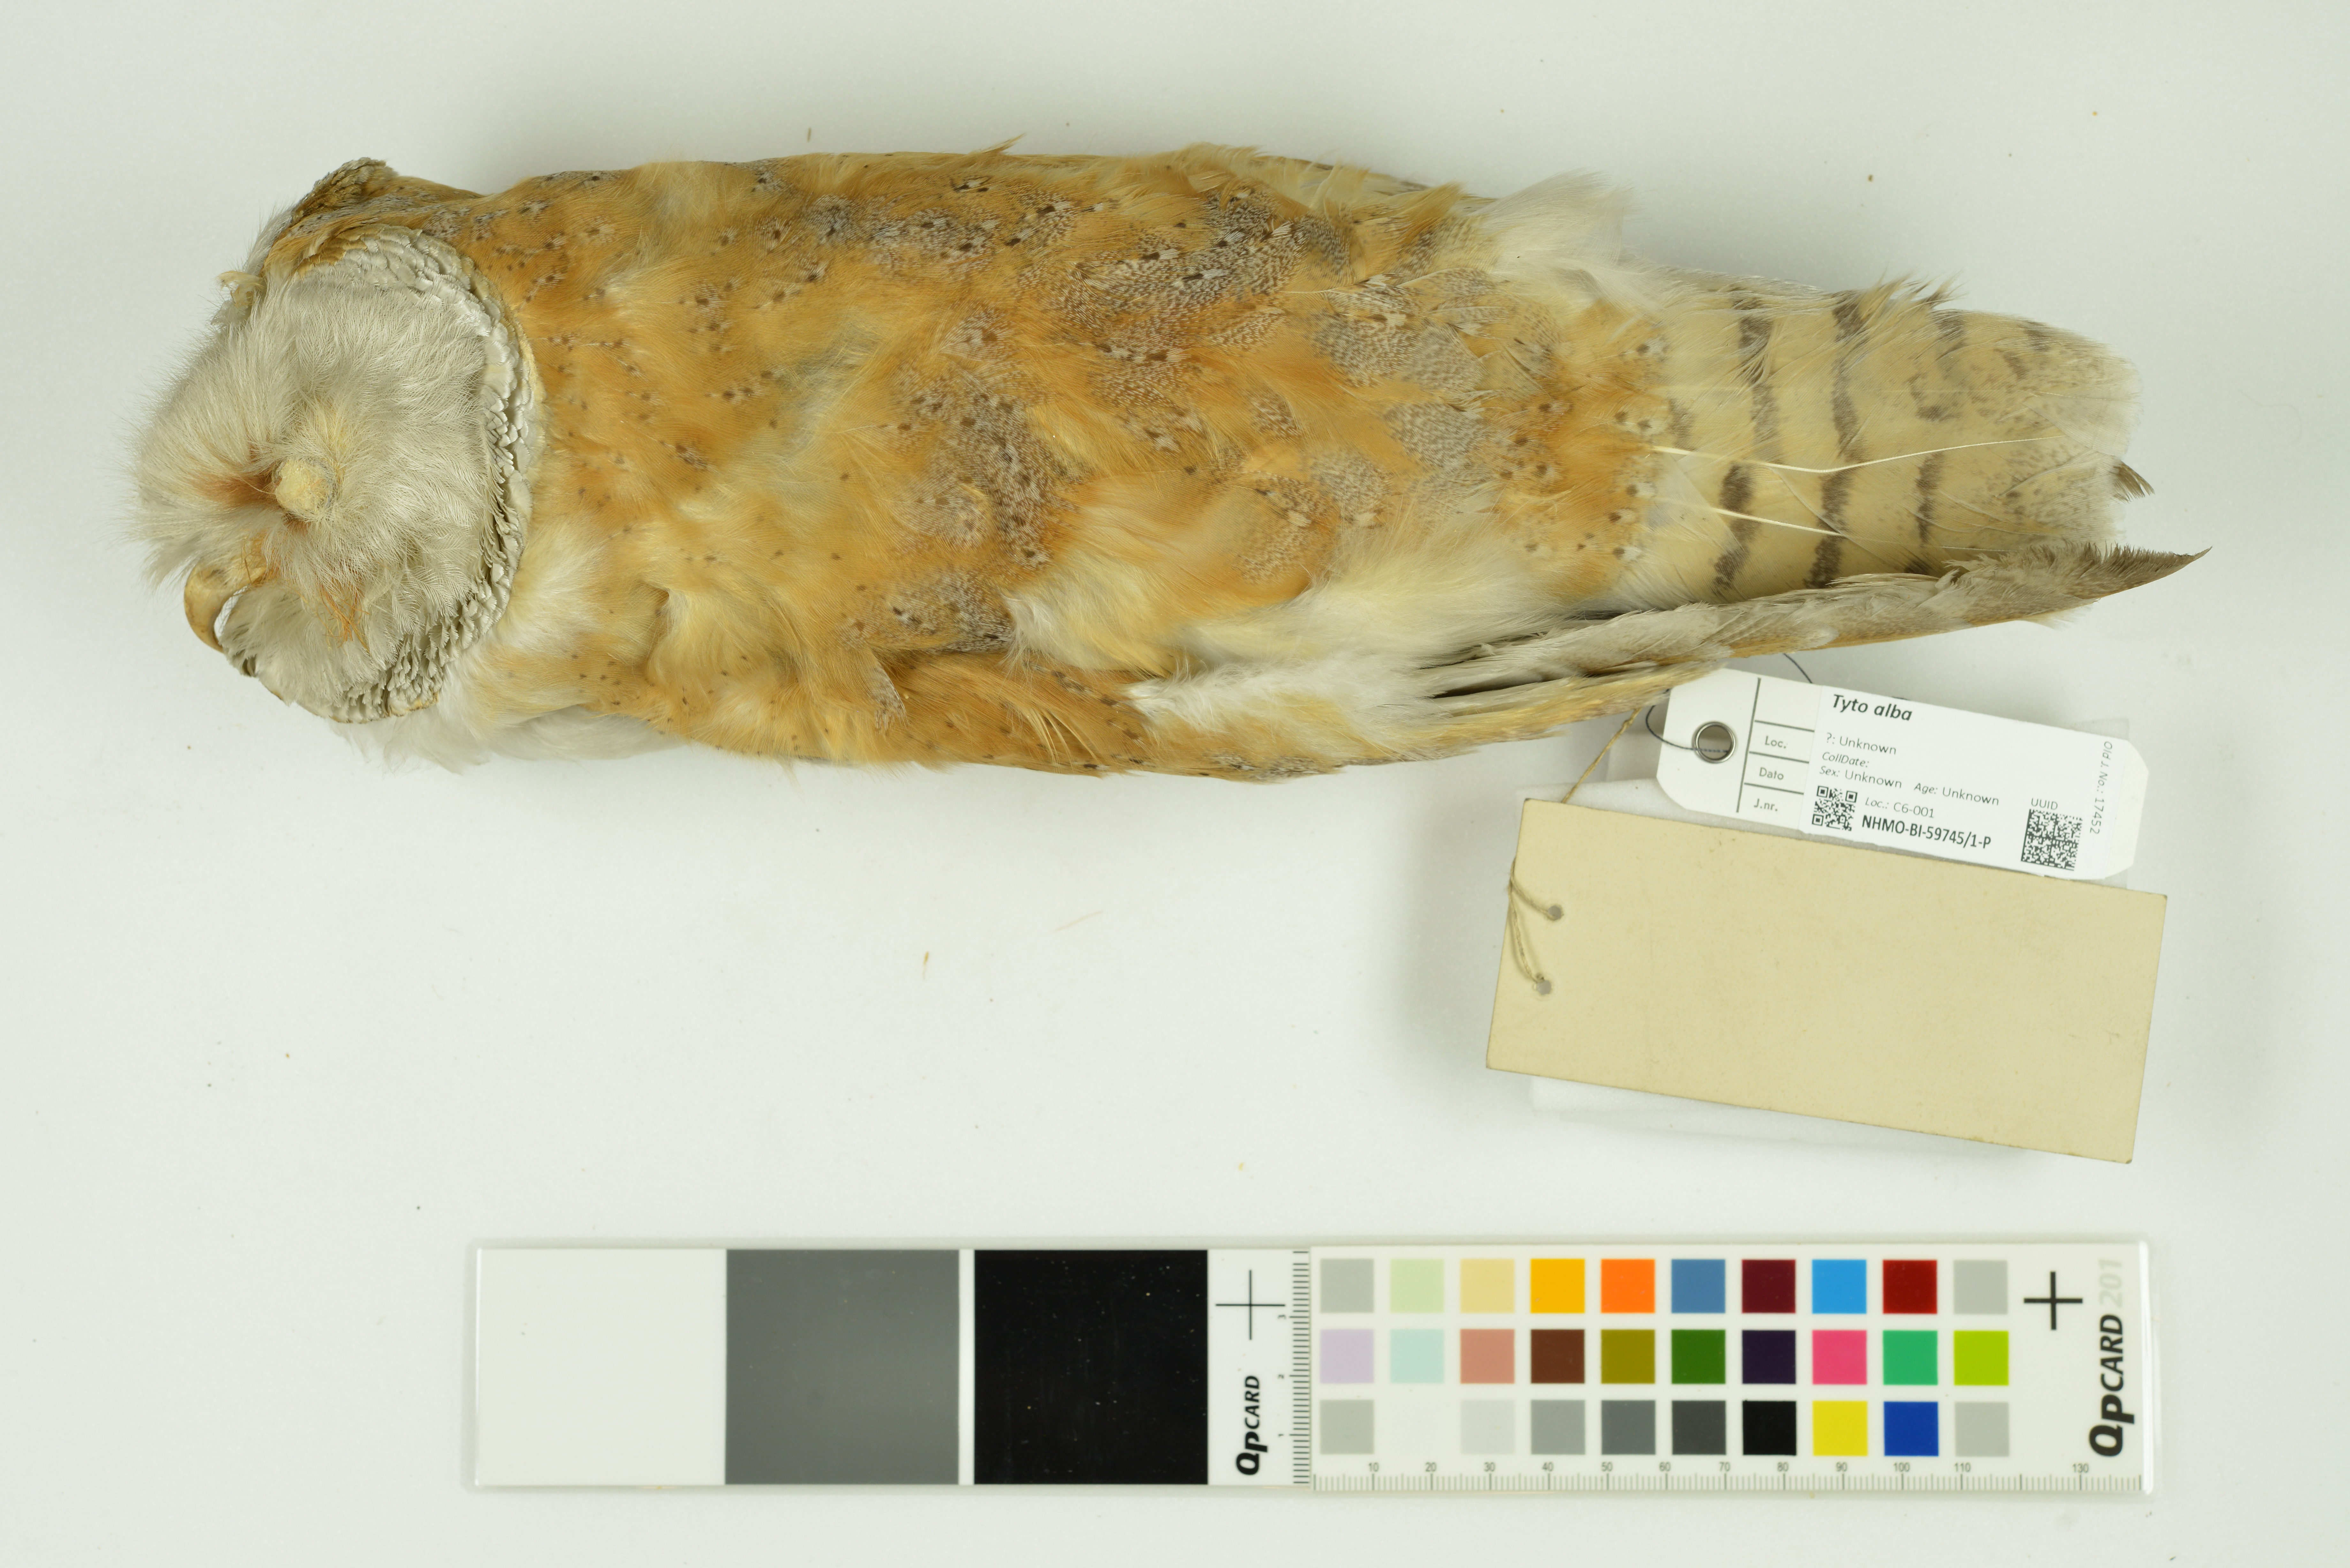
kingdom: Animalia
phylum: Chordata
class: Aves
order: Strigiformes
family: Tytonidae
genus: Tyto
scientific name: Tyto alba
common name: Barn owl
